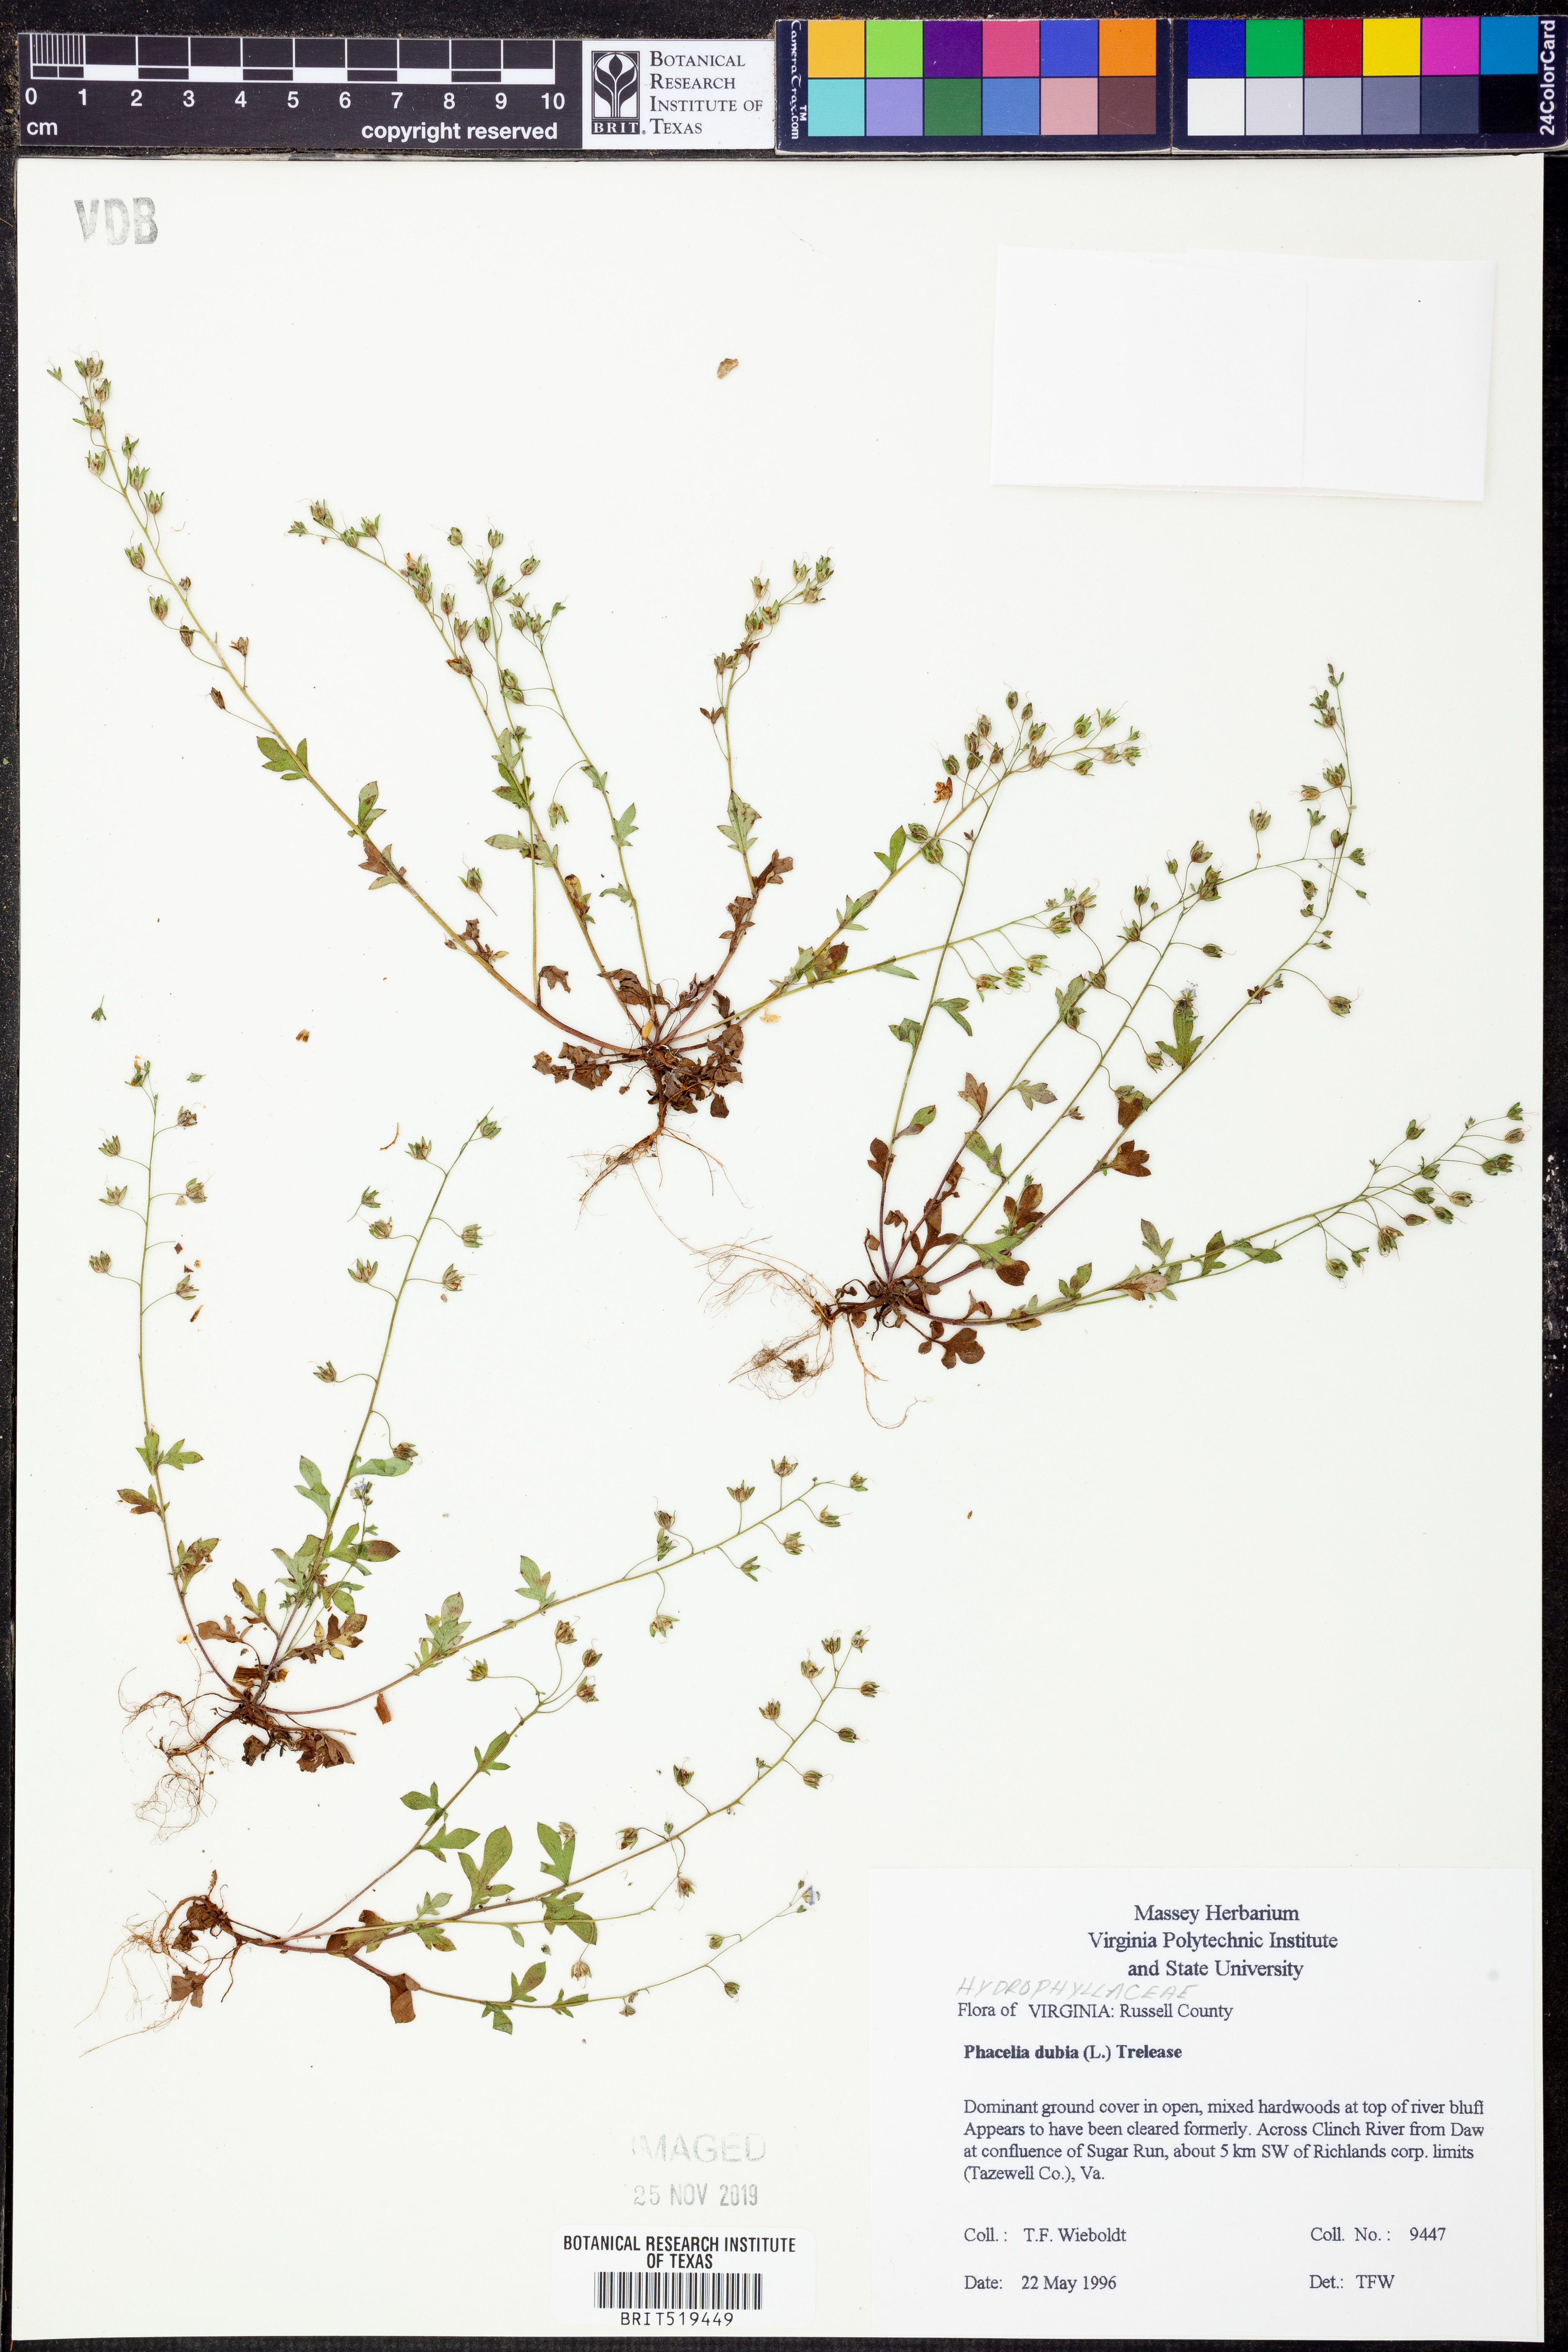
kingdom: Plantae
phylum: Tracheophyta
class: Magnoliopsida
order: Boraginales
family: Hydrophyllaceae
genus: Phacelia
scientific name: Phacelia dubia
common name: Appalachian phacelia
